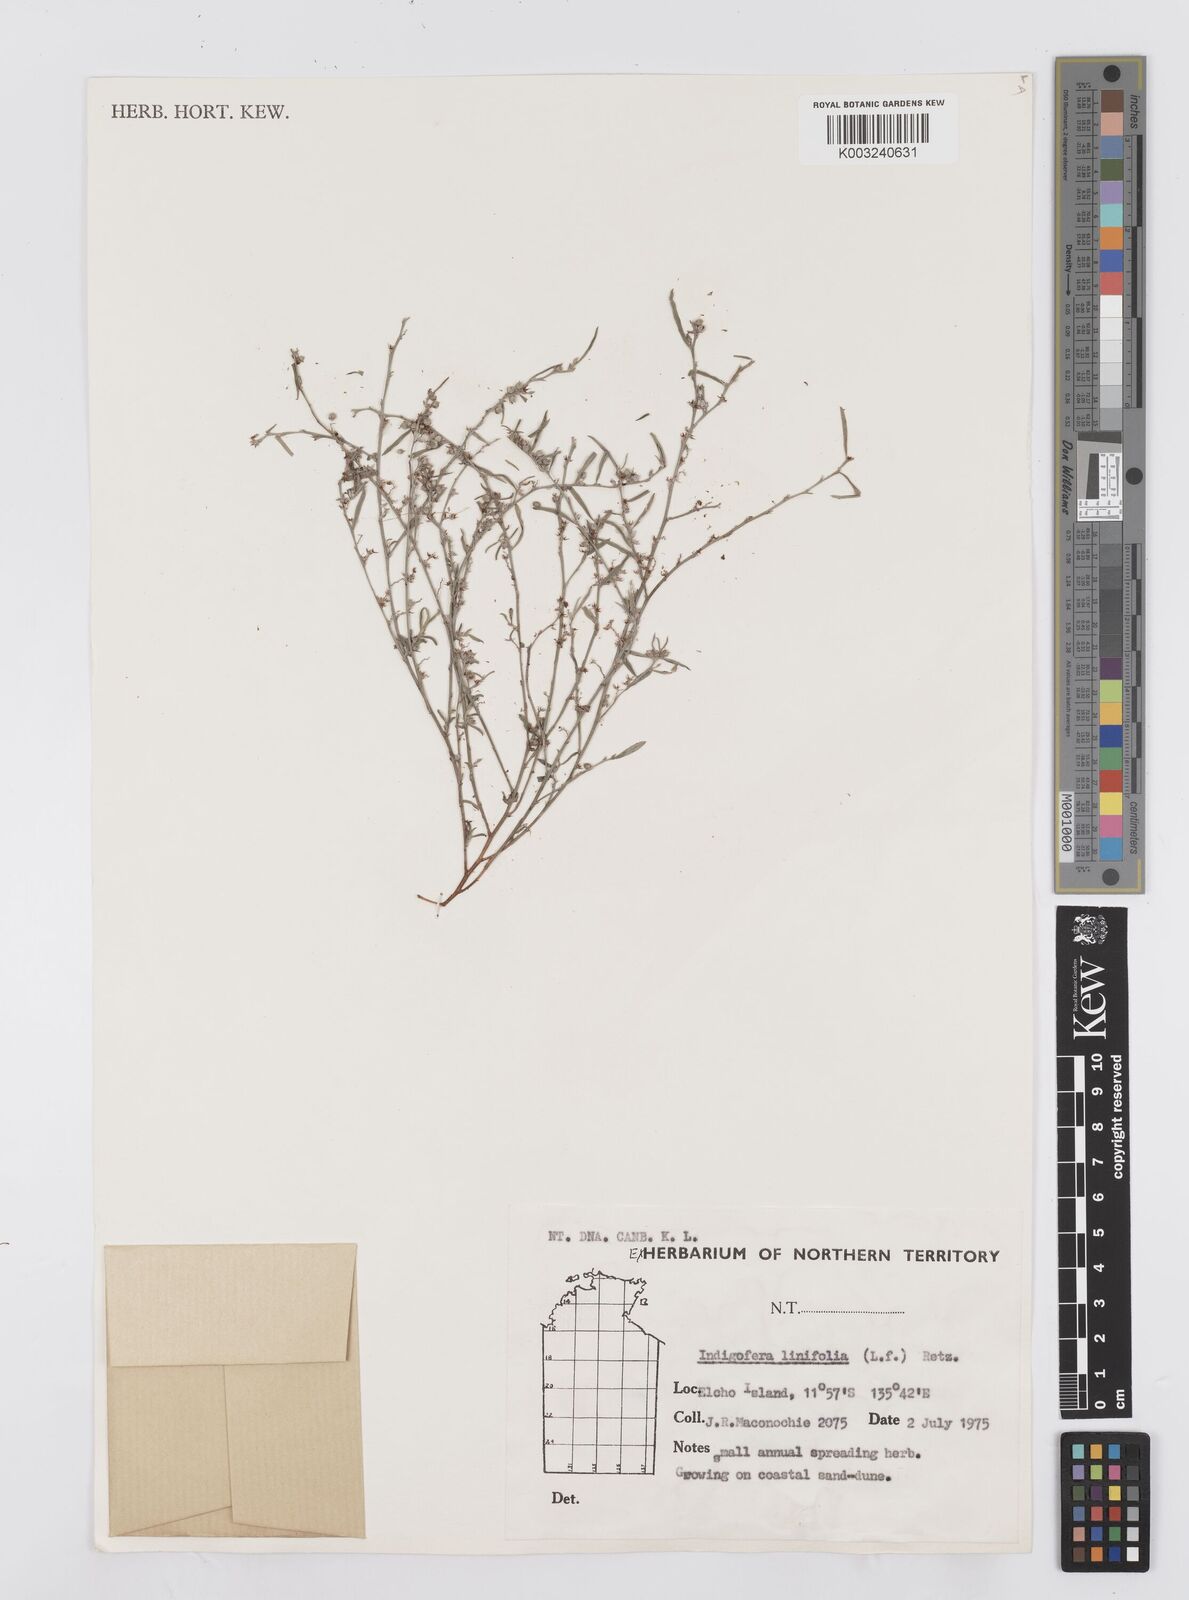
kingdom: Plantae
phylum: Tracheophyta
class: Magnoliopsida
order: Fabales
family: Fabaceae
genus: Indigofera
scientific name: Indigofera linifolia
